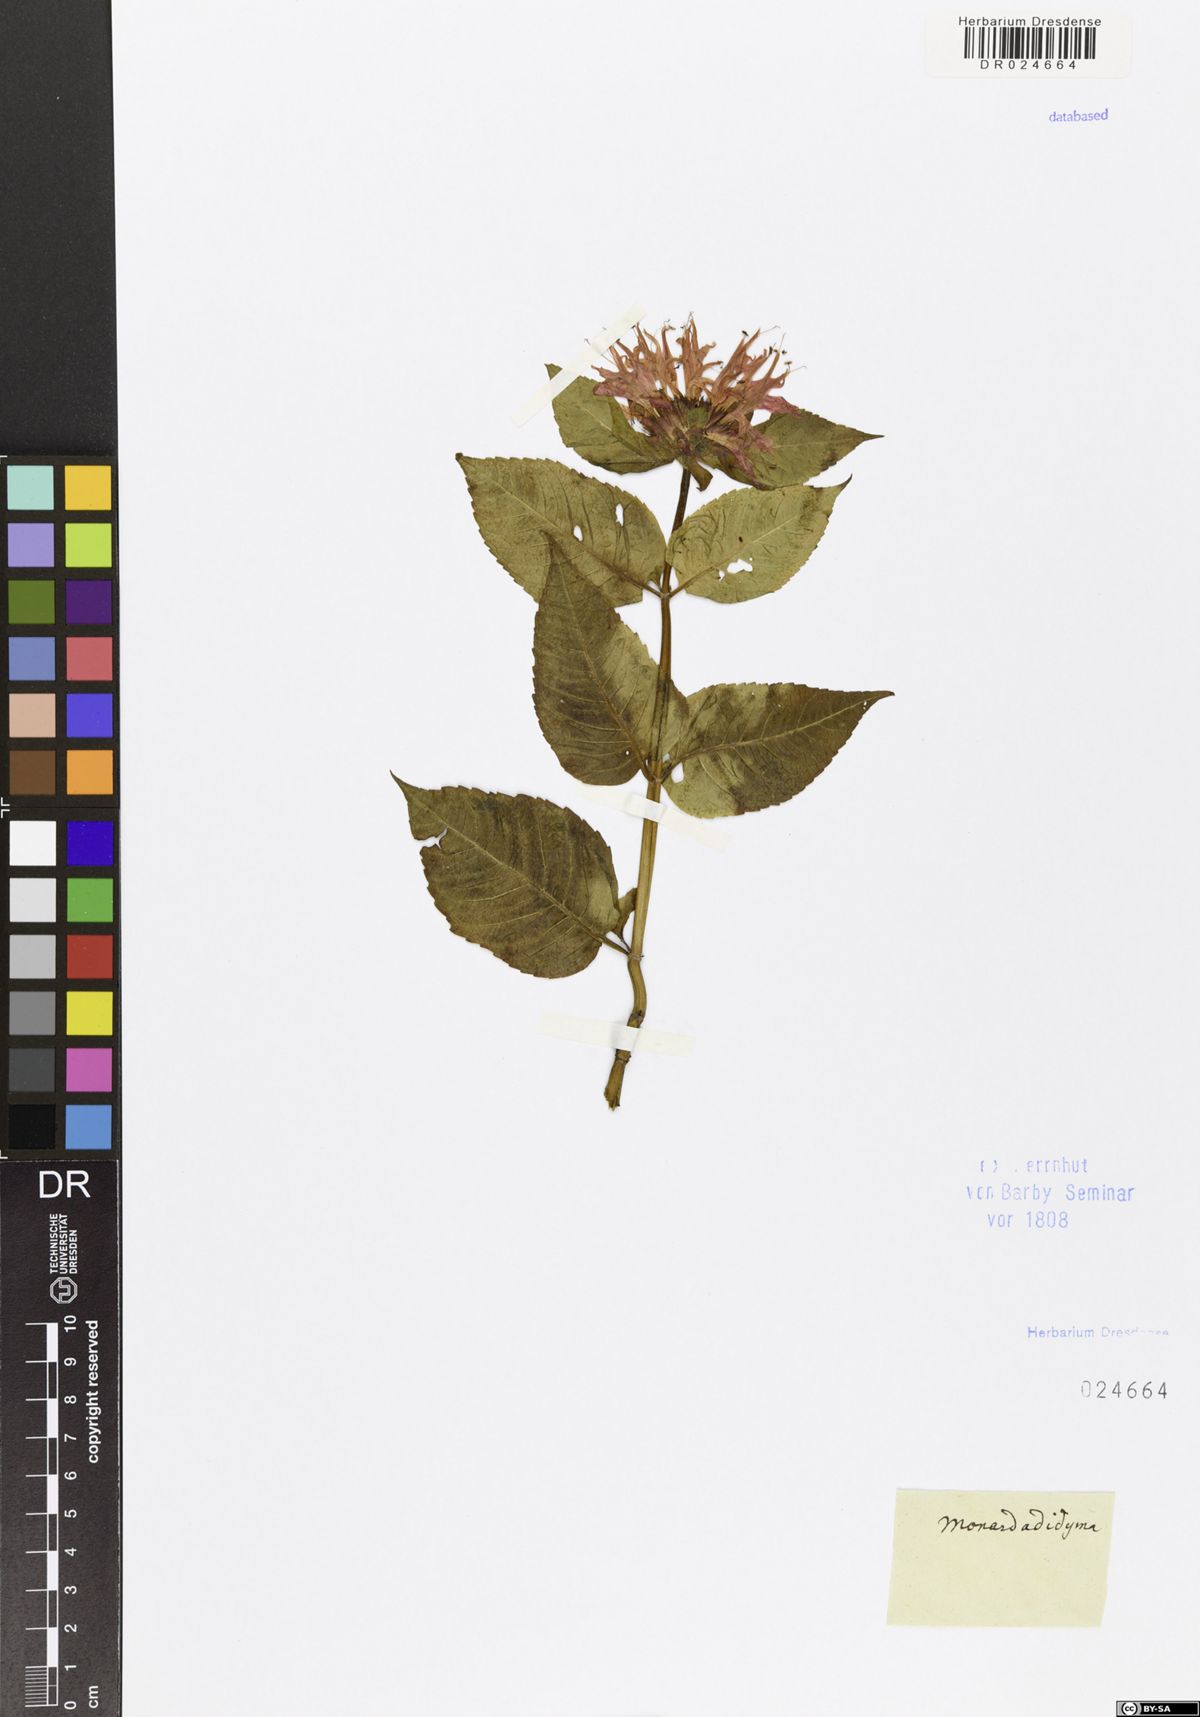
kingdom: Plantae
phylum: Tracheophyta
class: Magnoliopsida
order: Lamiales
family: Lamiaceae
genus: Monarda
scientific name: Monarda didyma
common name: Beebalm
